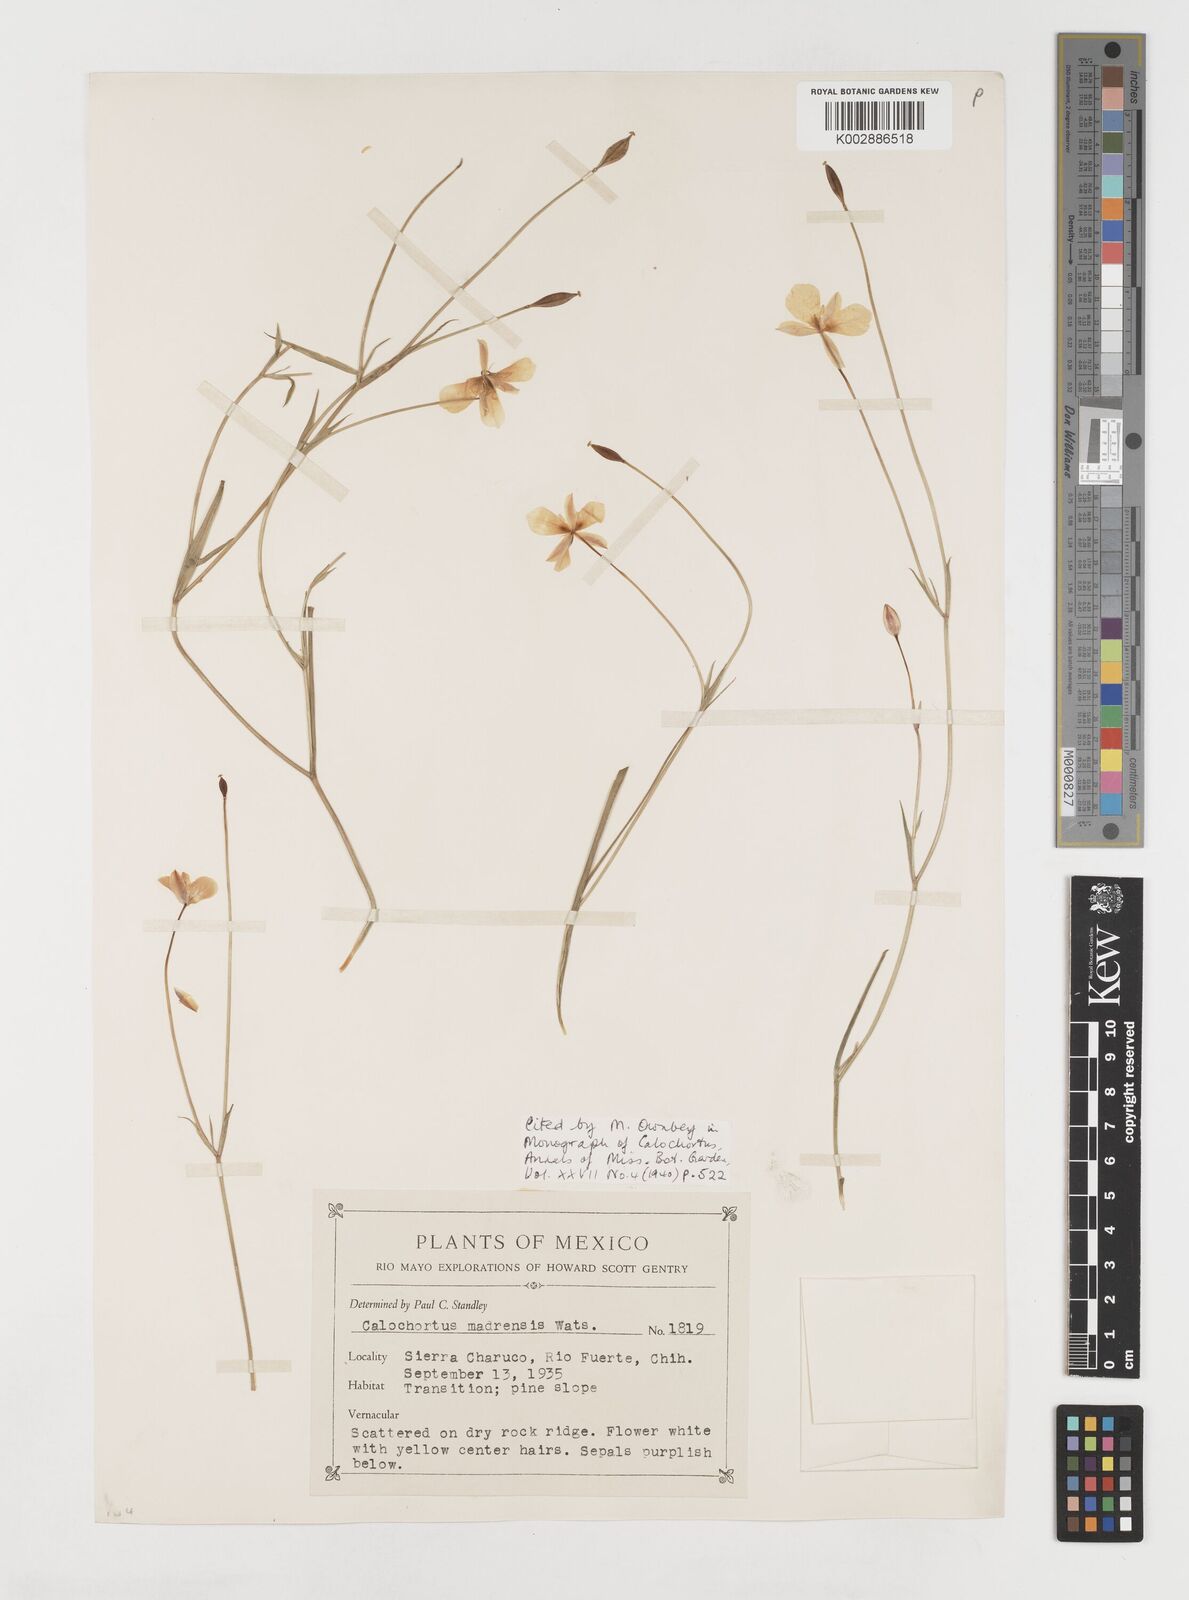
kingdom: Plantae
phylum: Tracheophyta
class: Liliopsida
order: Liliales
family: Liliaceae
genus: Calochortus
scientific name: Calochortus venustulus
